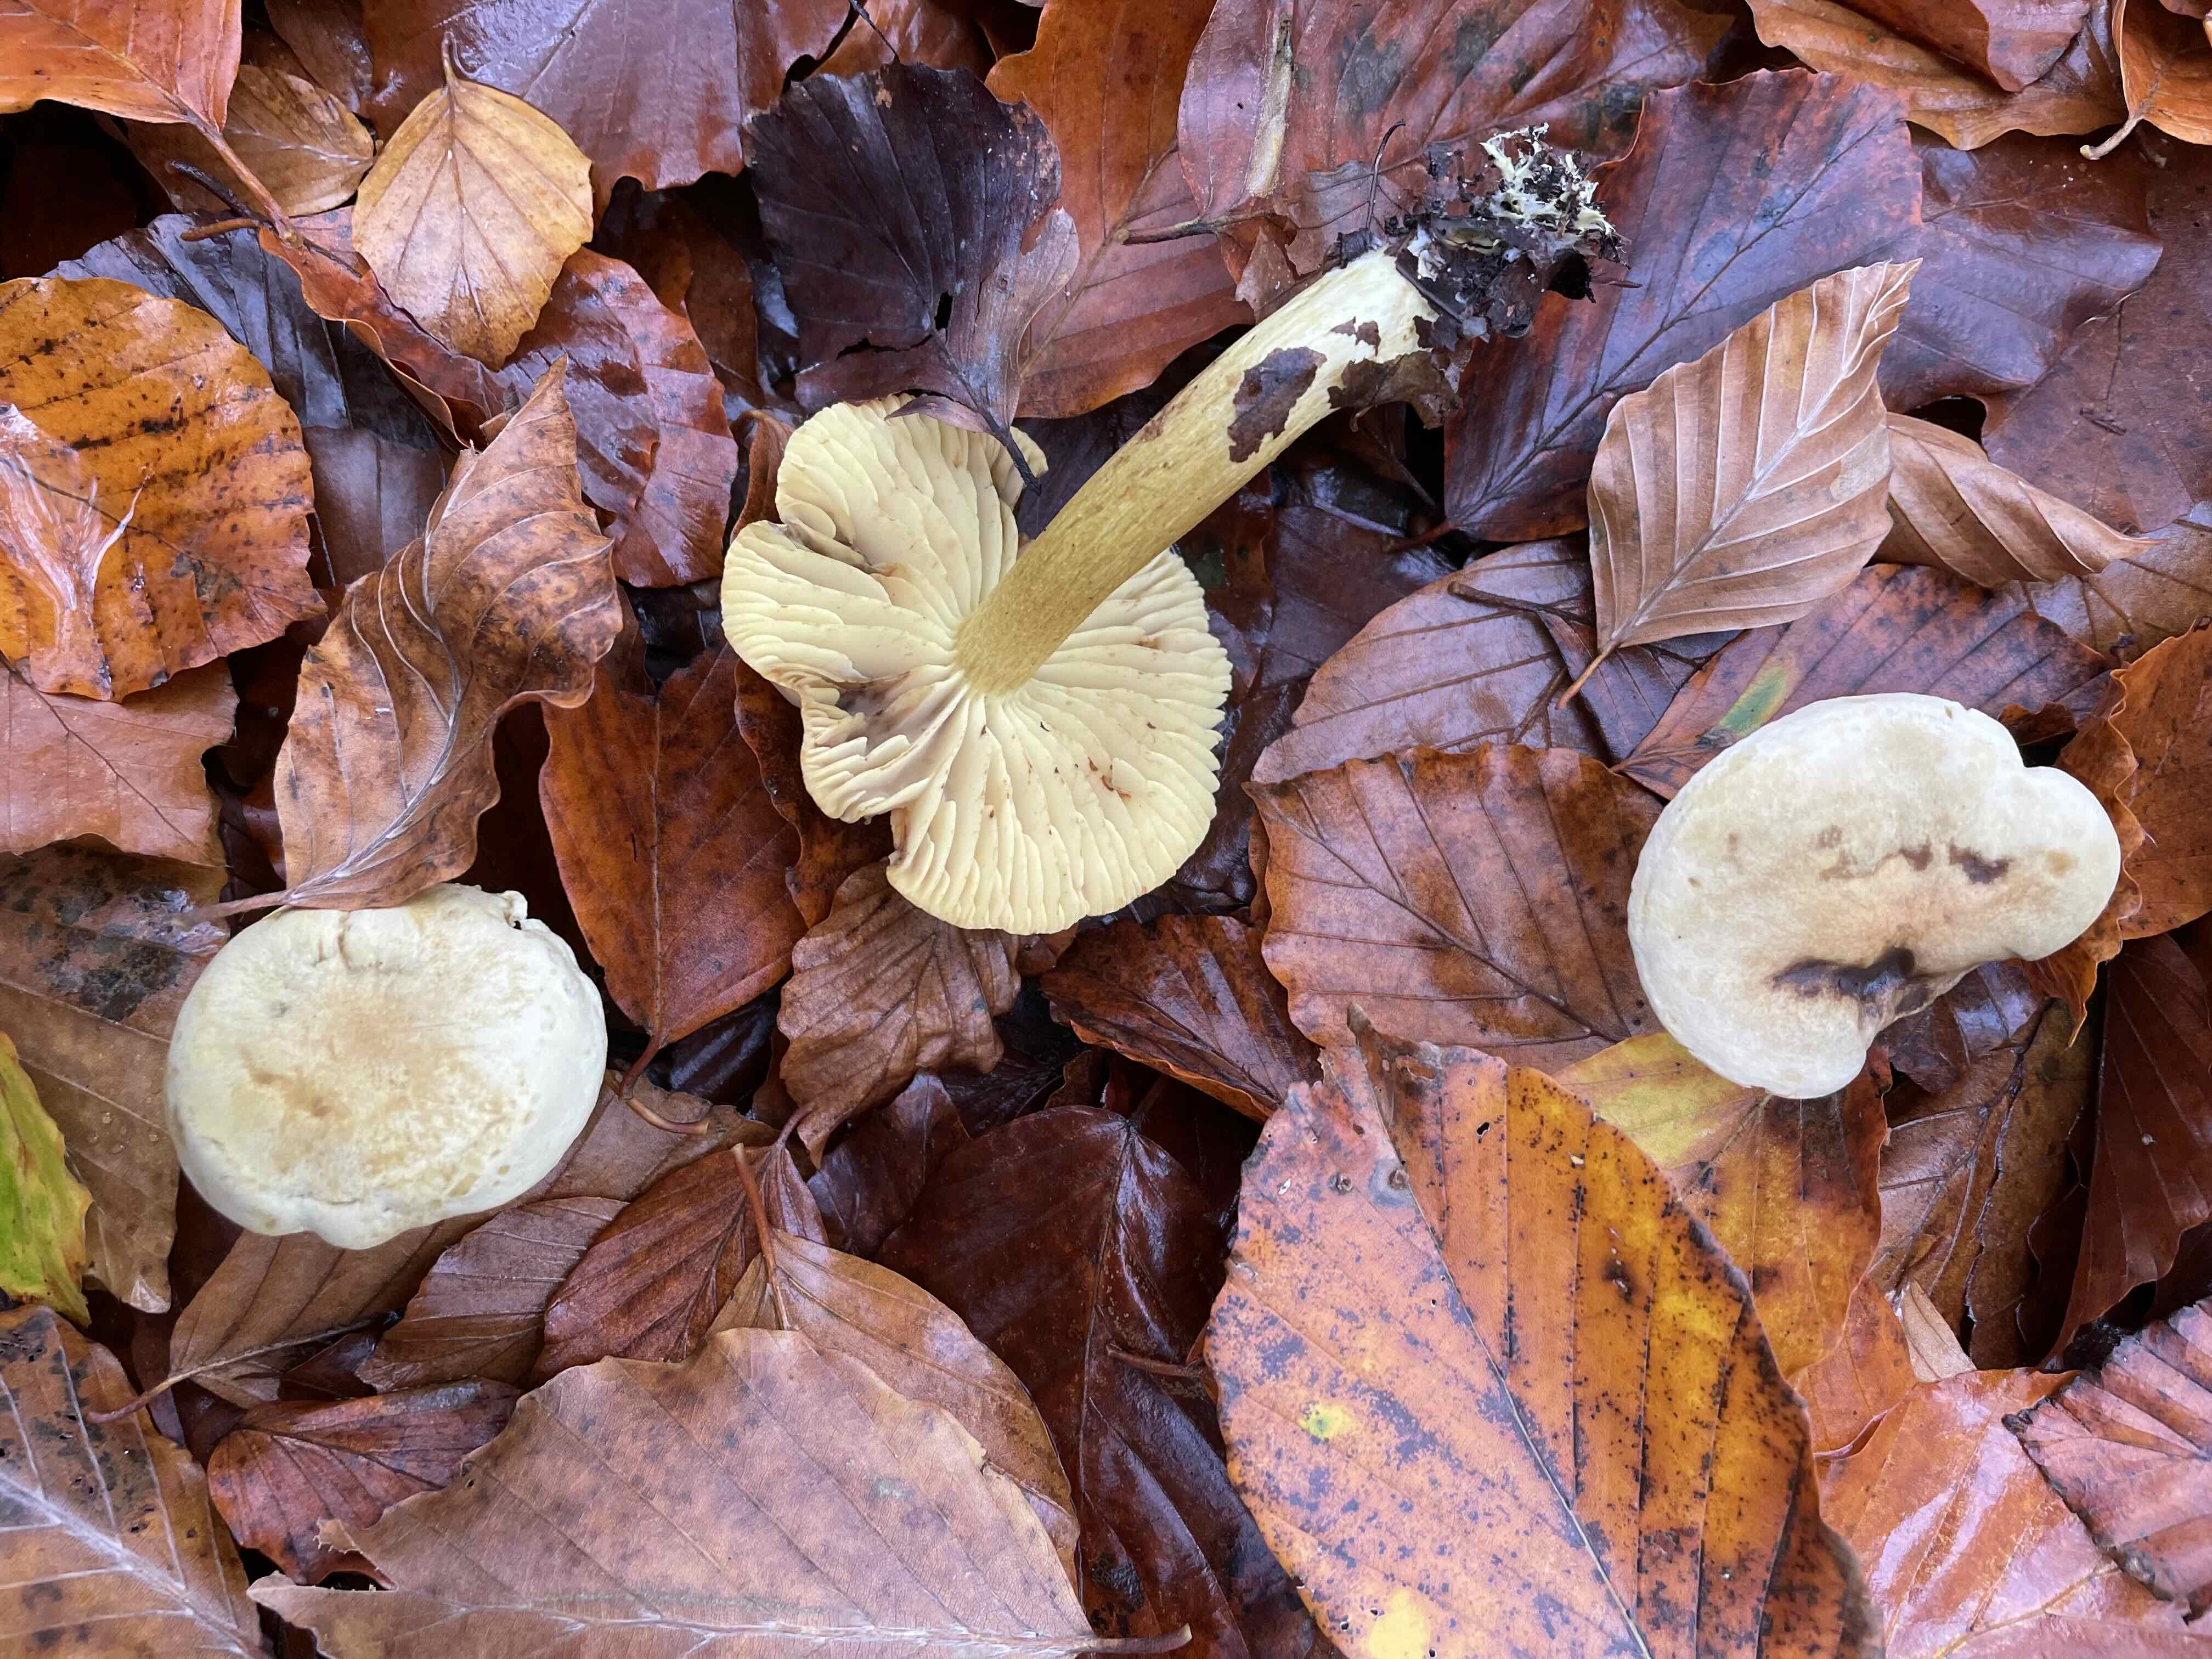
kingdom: Fungi
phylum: Basidiomycota
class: Agaricomycetes
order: Agaricales
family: Tricholomataceae
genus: Tricholoma
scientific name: Tricholoma sulphureum
